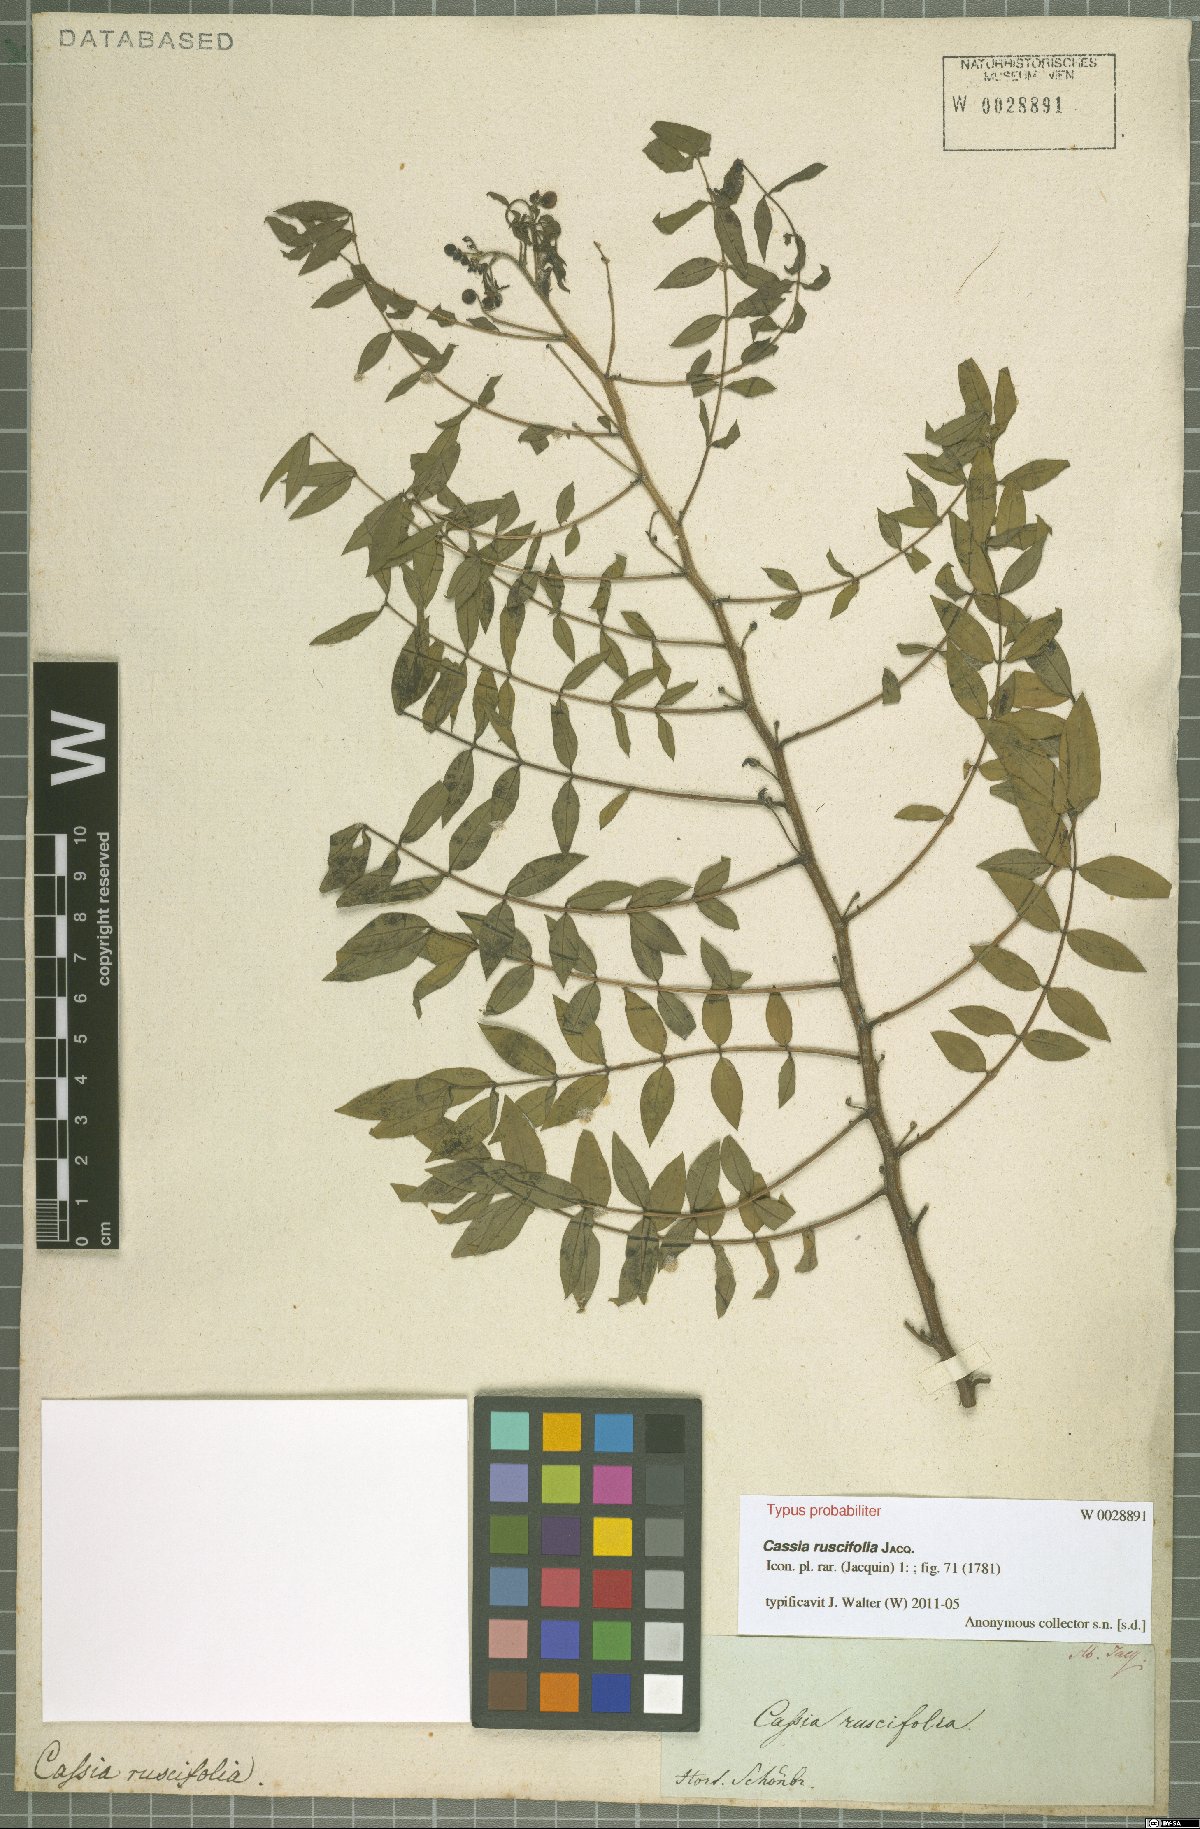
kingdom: Plantae
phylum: Tracheophyta
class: Magnoliopsida
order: Fabales
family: Fabaceae
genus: Senna
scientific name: Senna sophera
